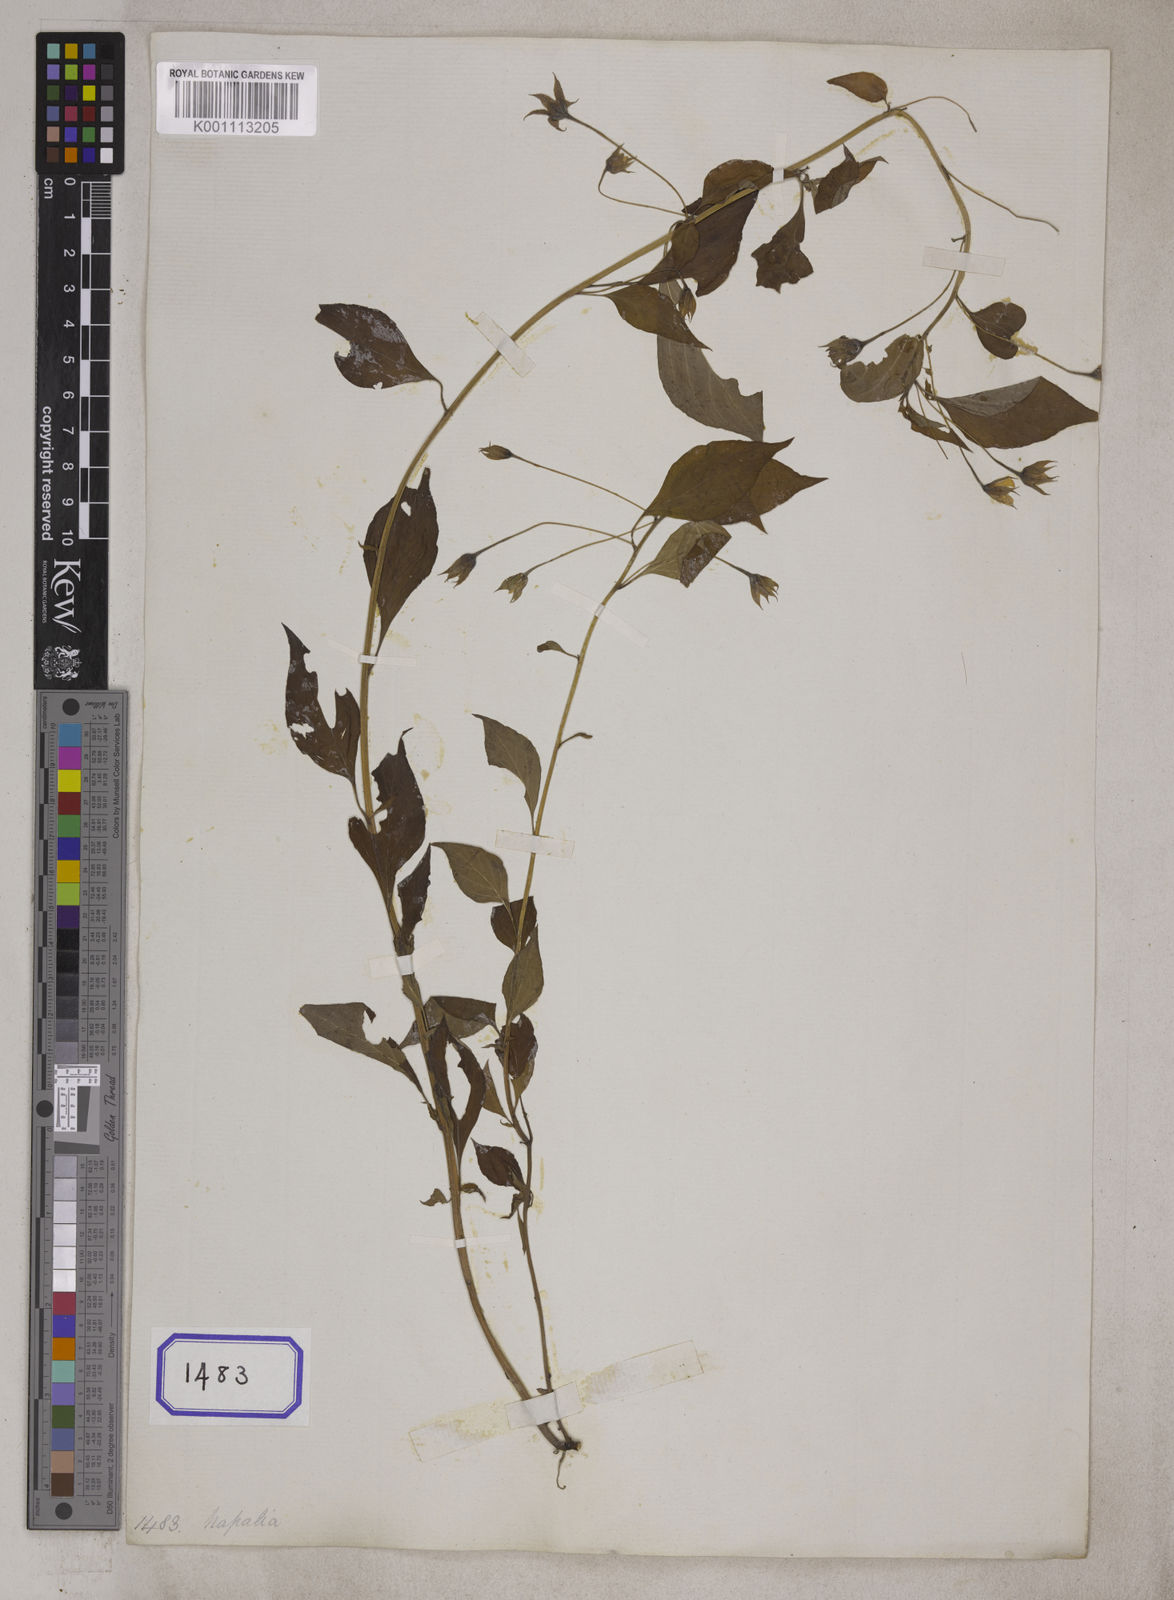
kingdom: Plantae
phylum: Tracheophyta
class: Magnoliopsida
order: Ericales
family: Primulaceae
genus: Lysimachia
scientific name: Lysimachia evalvis
